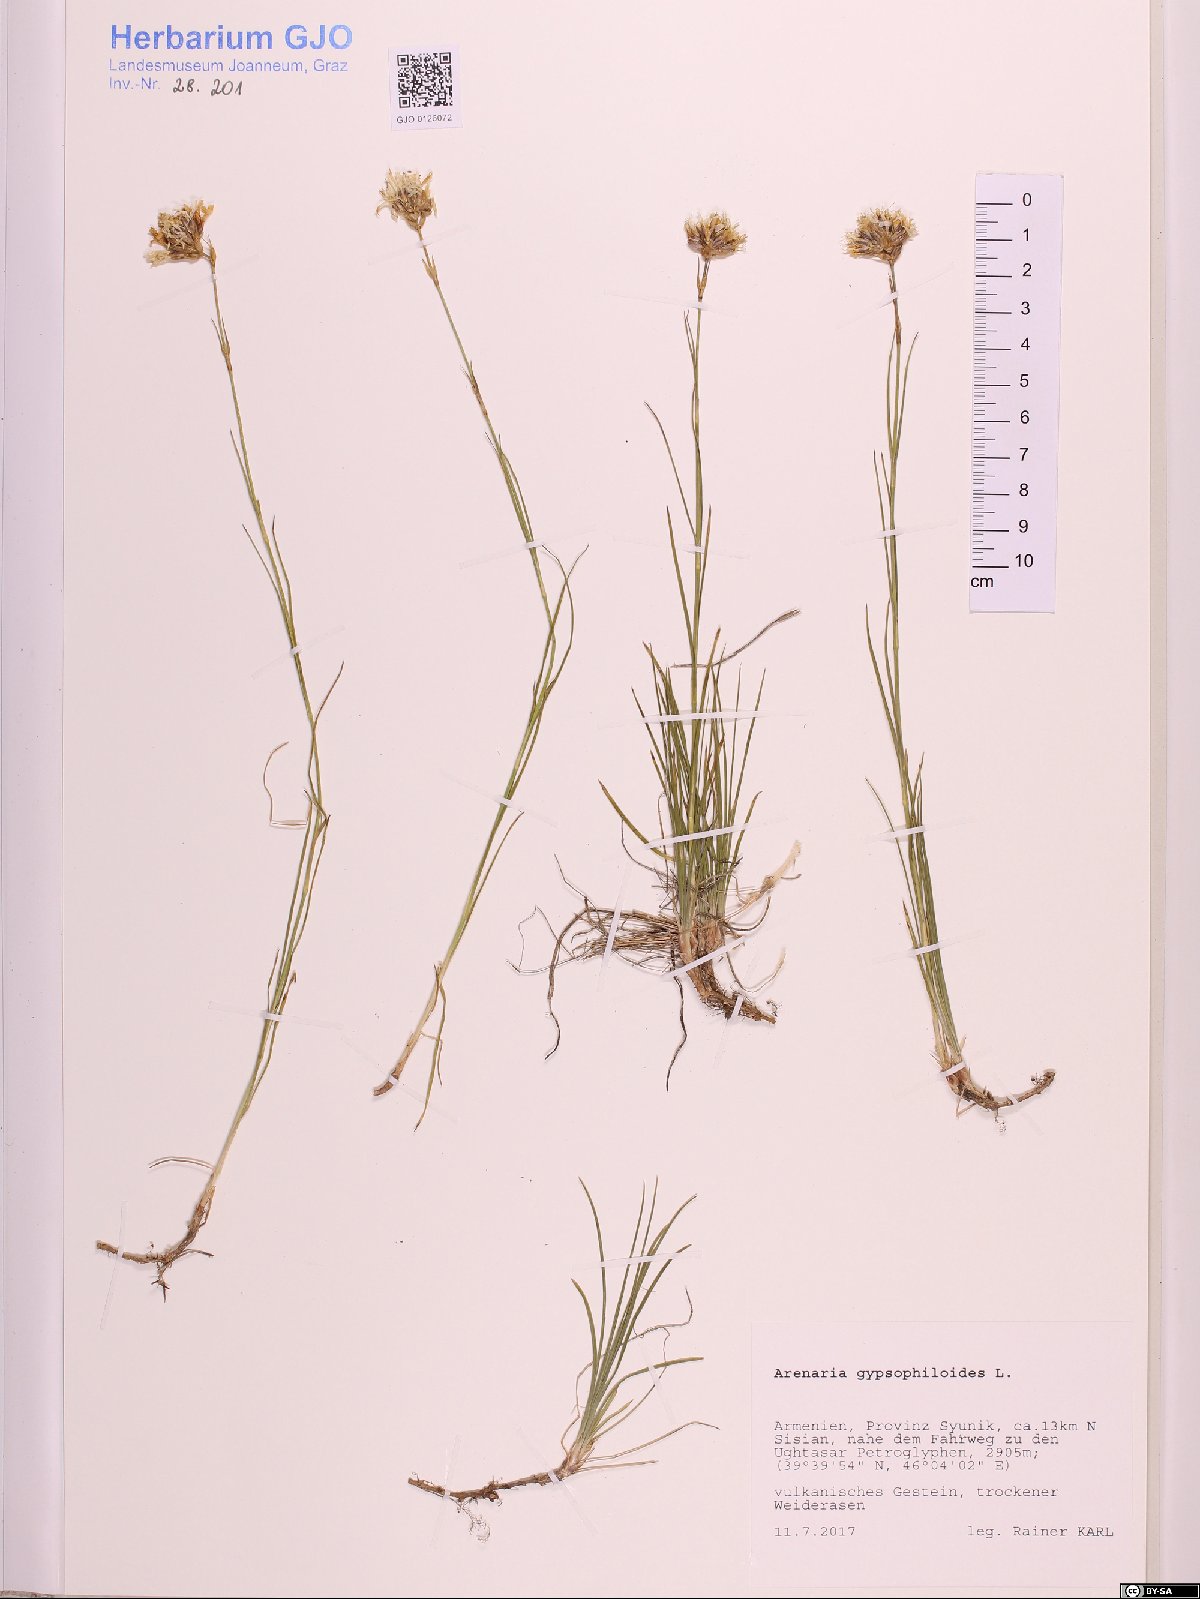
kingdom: Plantae
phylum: Tracheophyta
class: Magnoliopsida
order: Caryophyllales
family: Caryophyllaceae
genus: Eremogone
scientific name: Eremogone gypsophiloides
